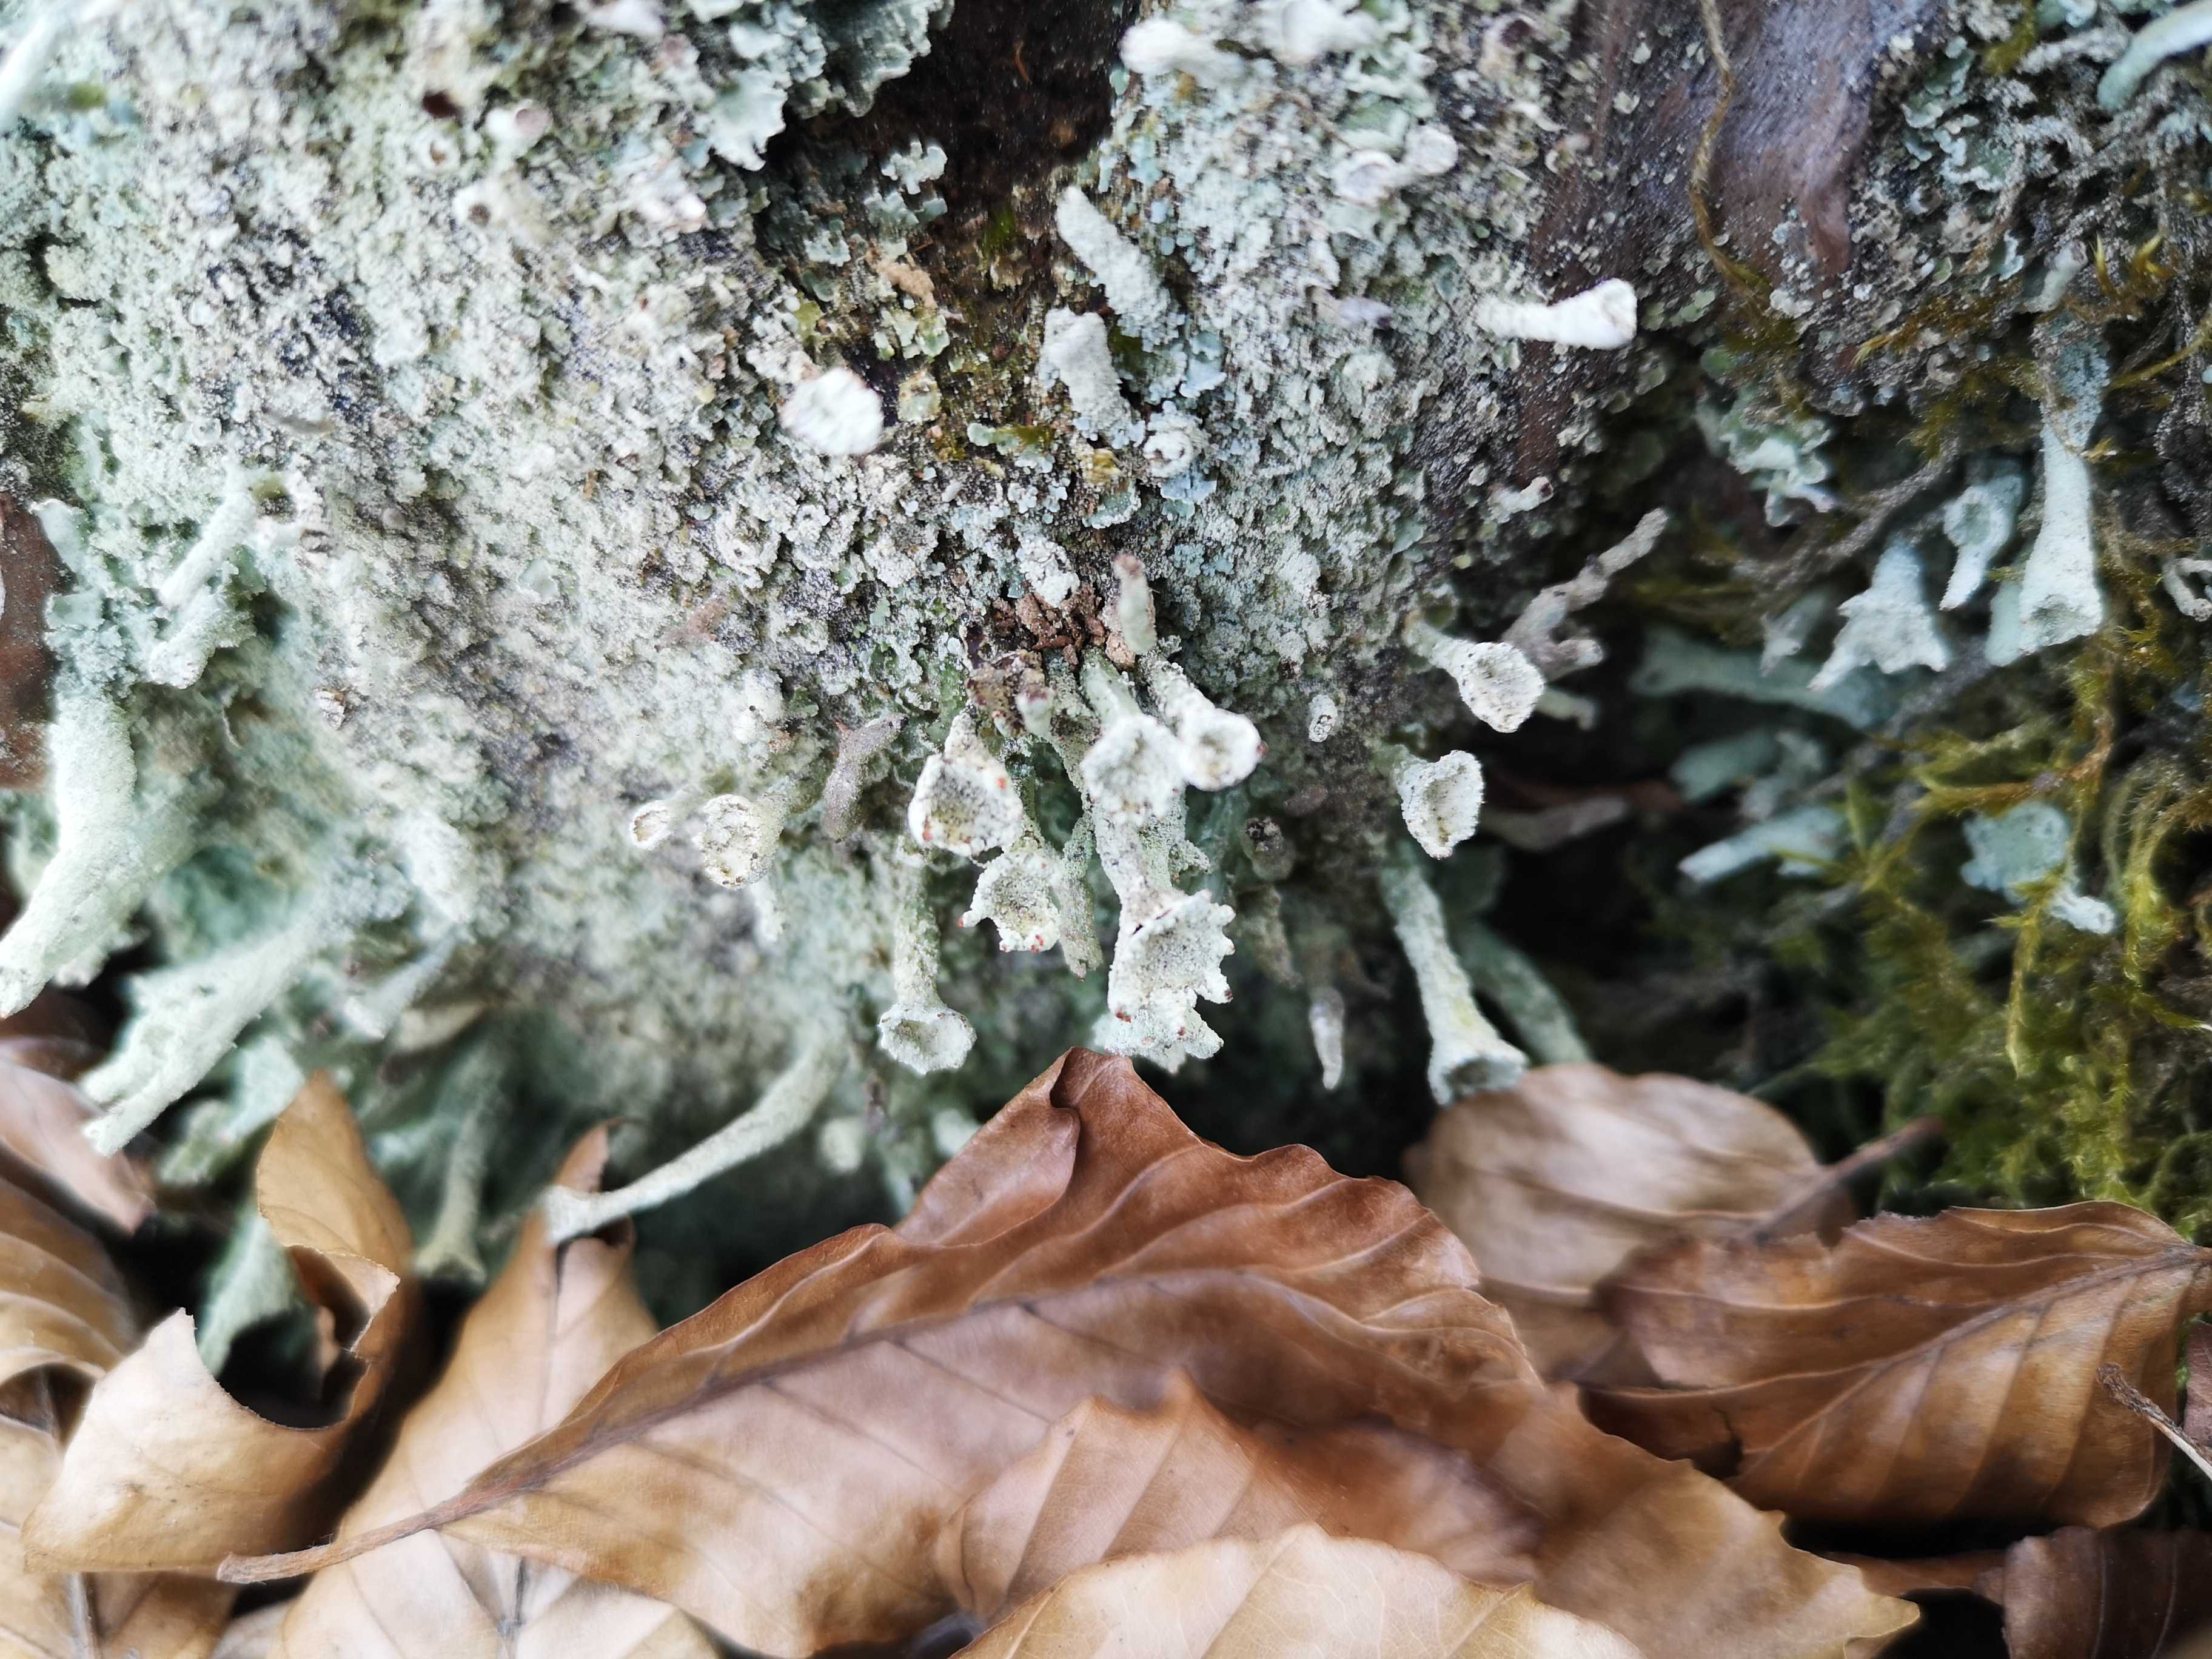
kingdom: Fungi
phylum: Ascomycota
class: Lecanoromycetes
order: Lecanorales
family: Cladoniaceae
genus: Cladonia
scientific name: Cladonia digitata
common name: finger-bægerlav
